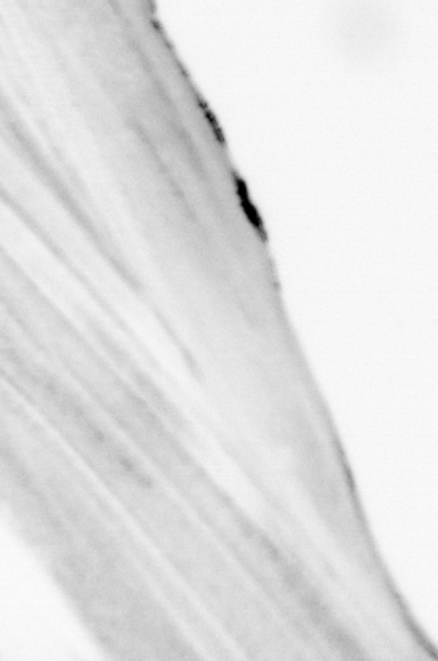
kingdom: Animalia
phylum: Chordata
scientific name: Chordata
